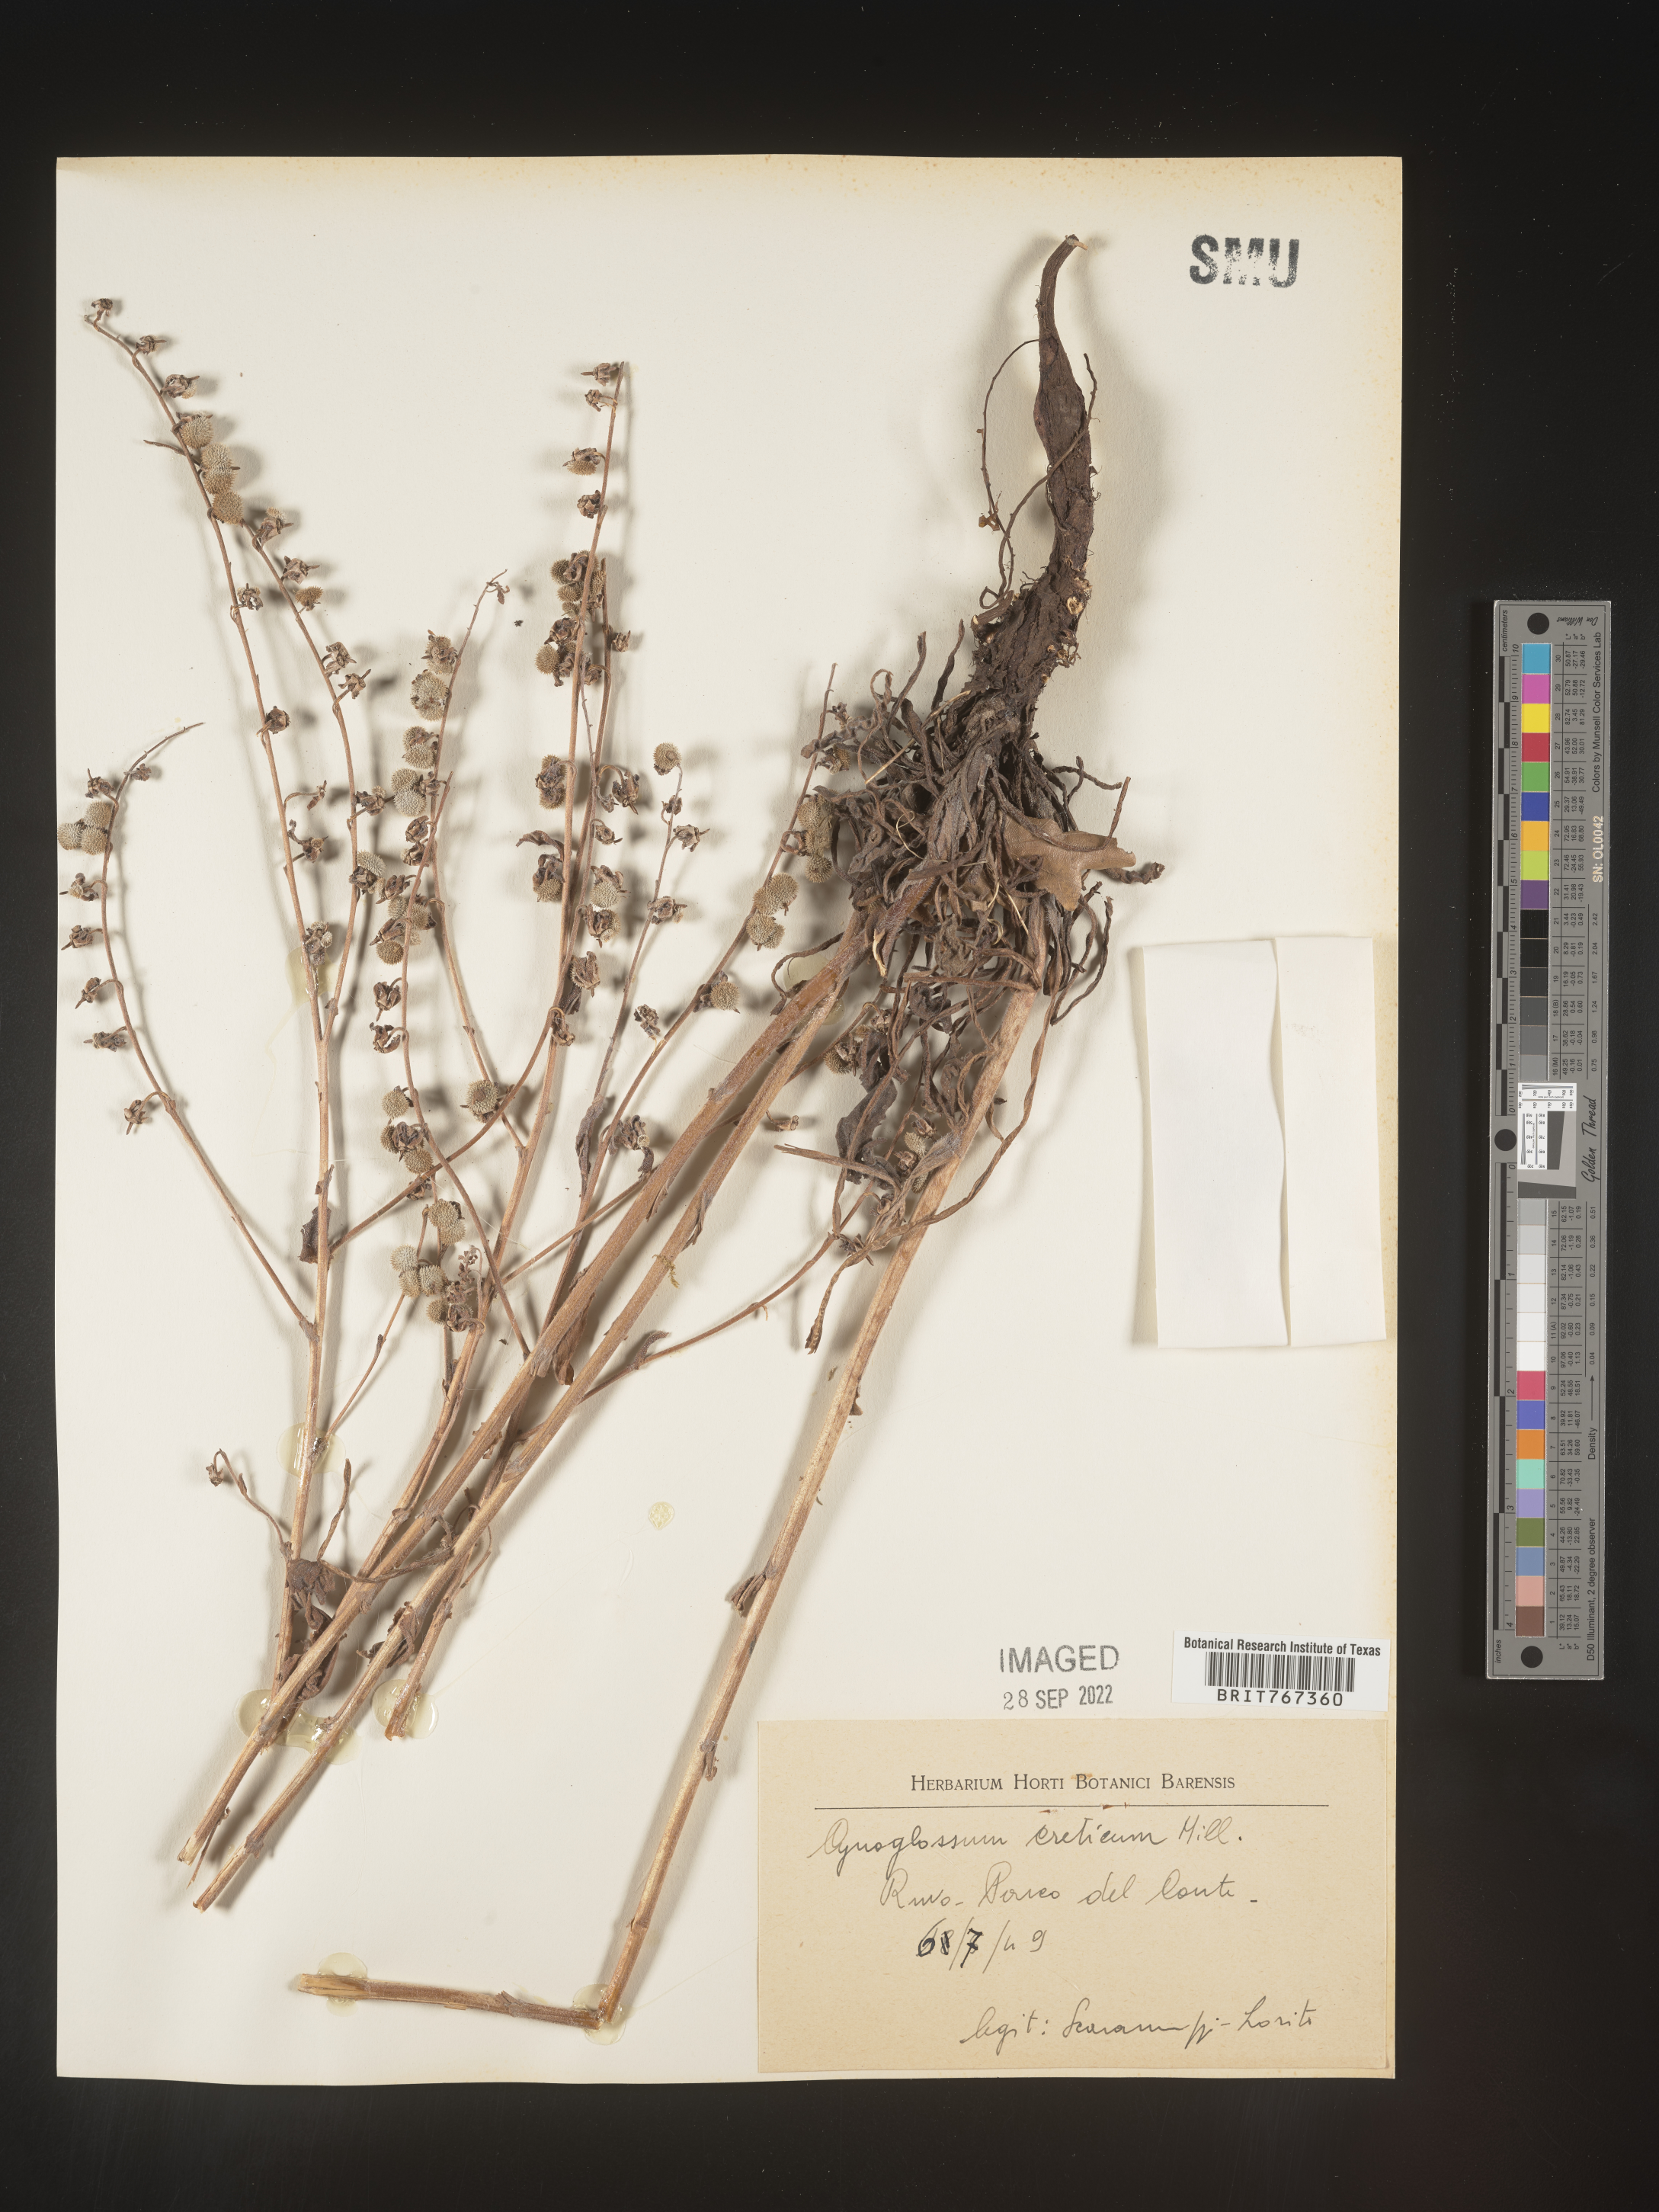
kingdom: Plantae
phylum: Tracheophyta
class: Magnoliopsida
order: Boraginales
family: Boraginaceae
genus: Cynoglossum
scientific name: Cynoglossum
